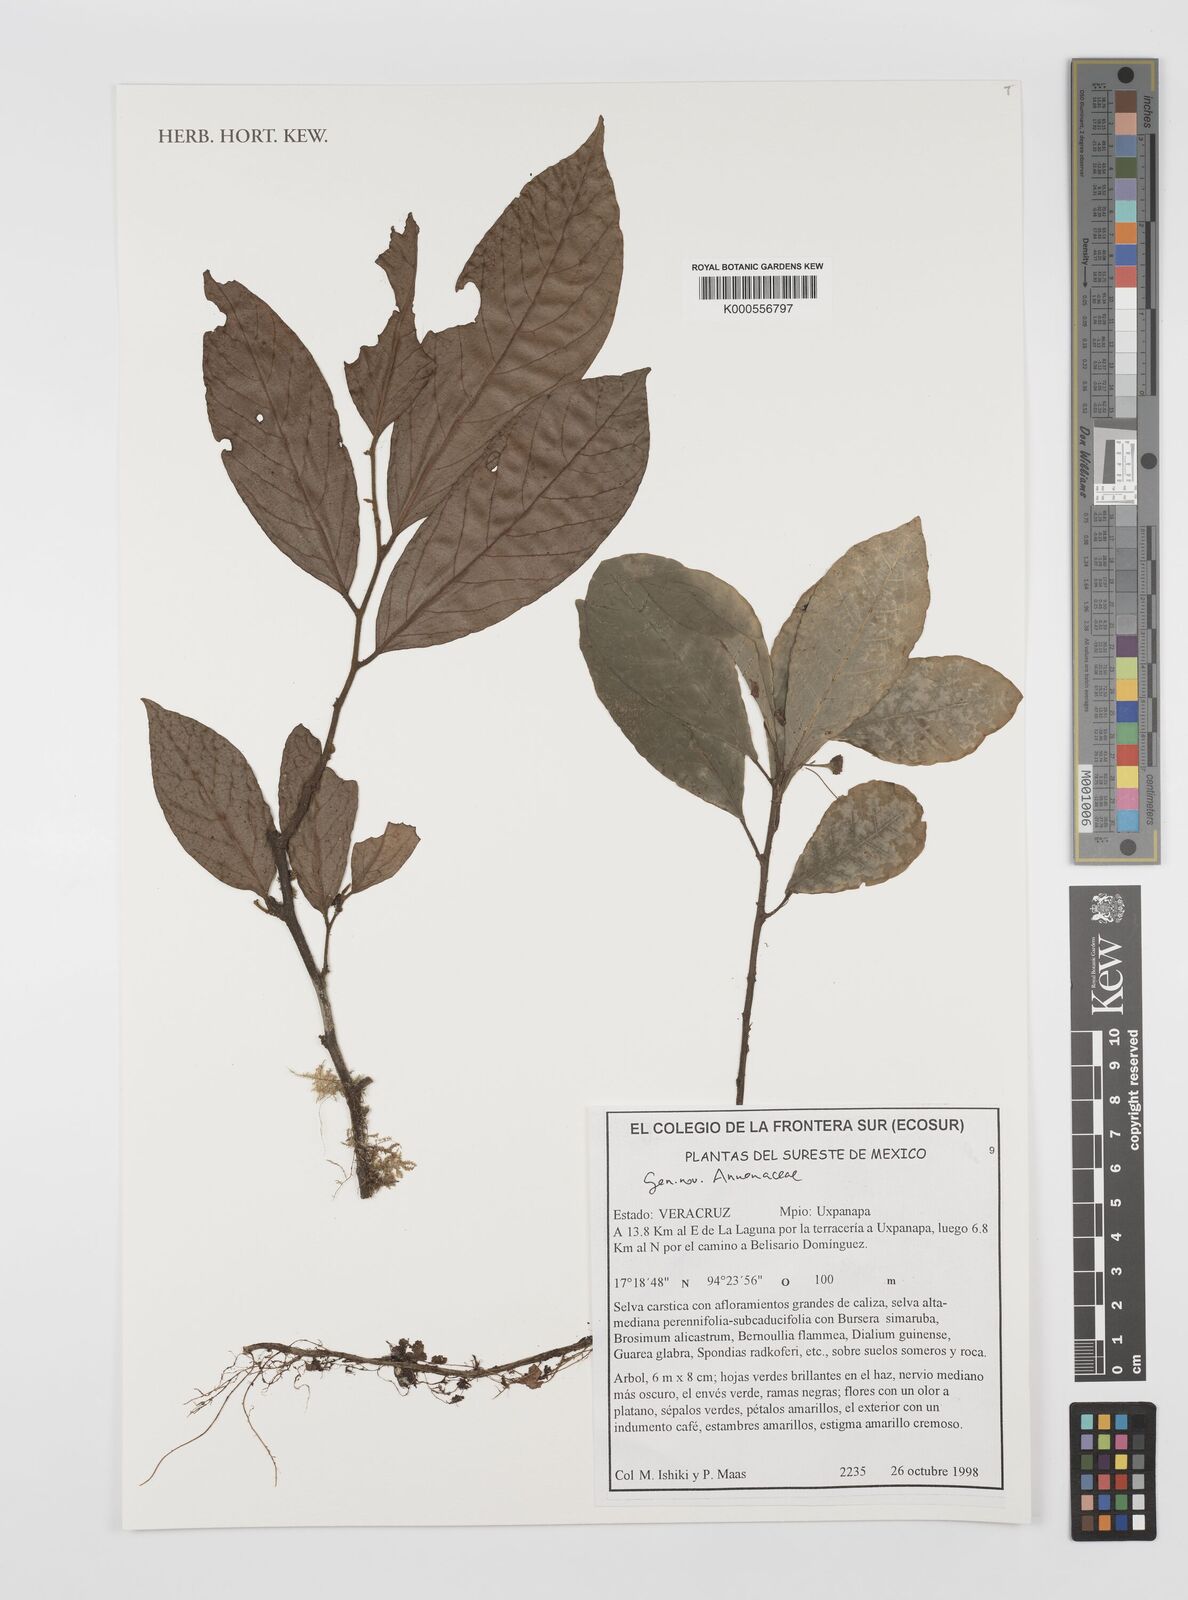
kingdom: Plantae
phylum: Tracheophyta
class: Magnoliopsida
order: Magnoliales
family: Annonaceae
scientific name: Annonaceae
